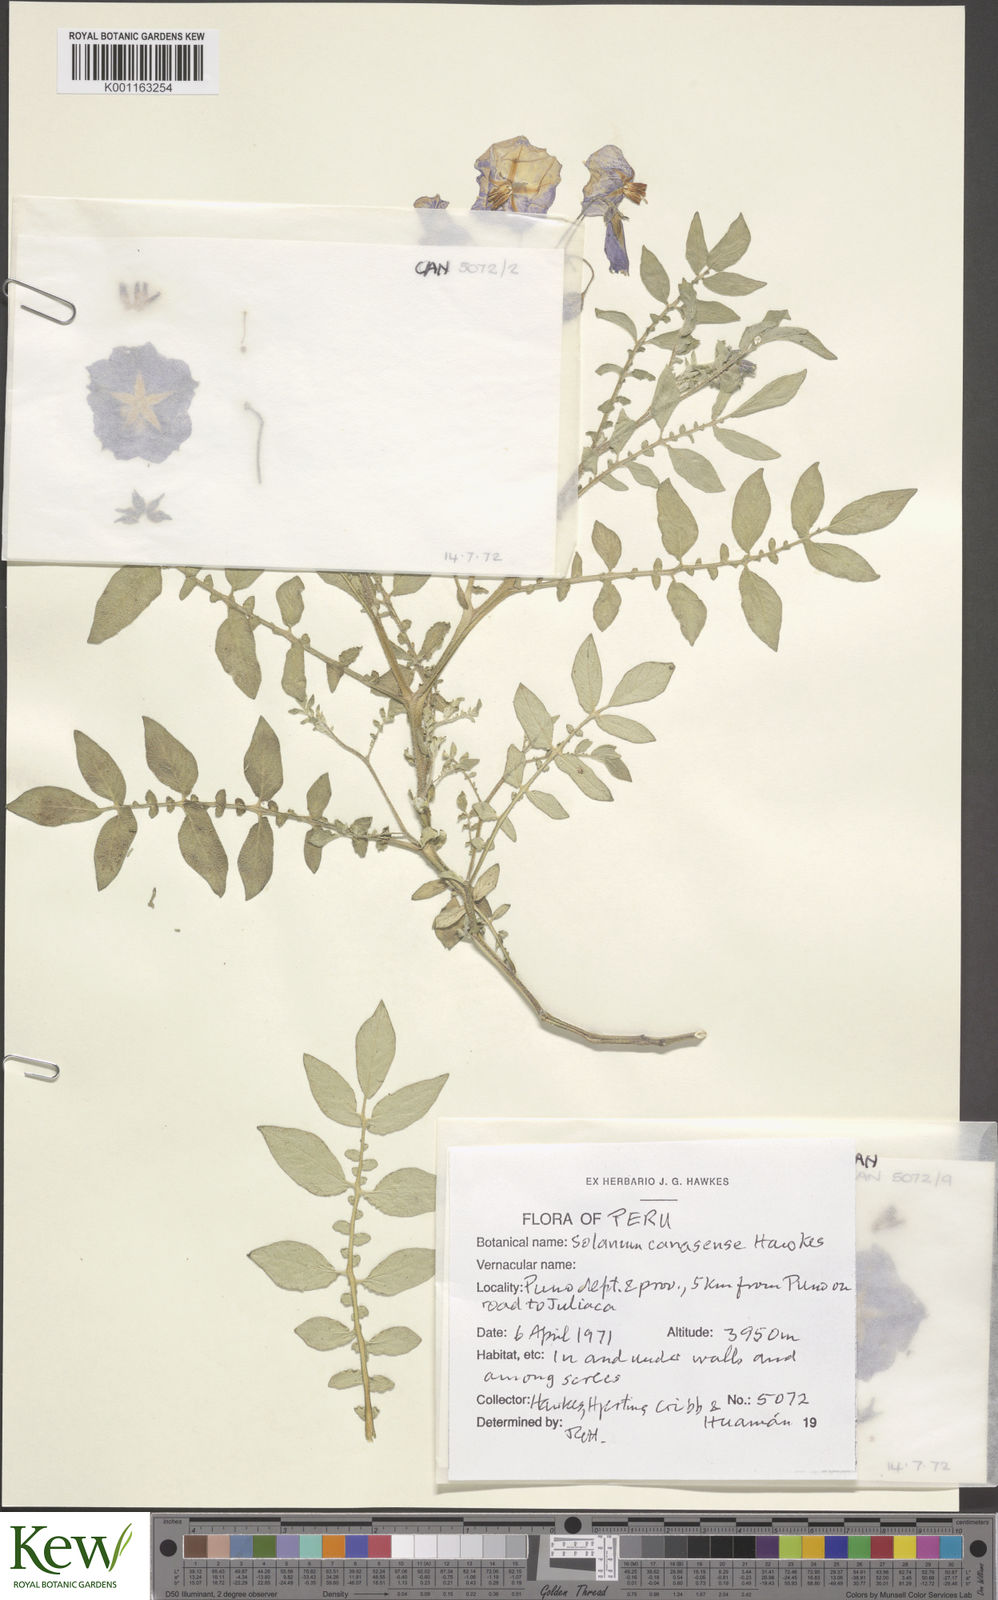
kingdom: Plantae
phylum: Tracheophyta
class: Magnoliopsida
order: Solanales
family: Solanaceae
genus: Solanum
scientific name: Solanum candolleanum
